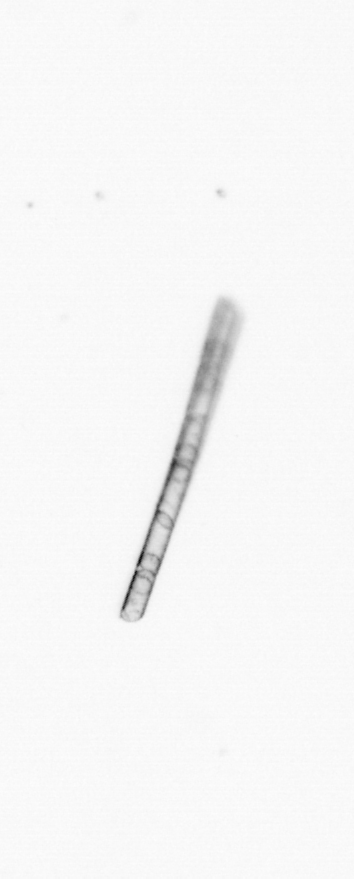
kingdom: Chromista
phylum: Ochrophyta
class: Bacillariophyceae
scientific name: Bacillariophyceae
